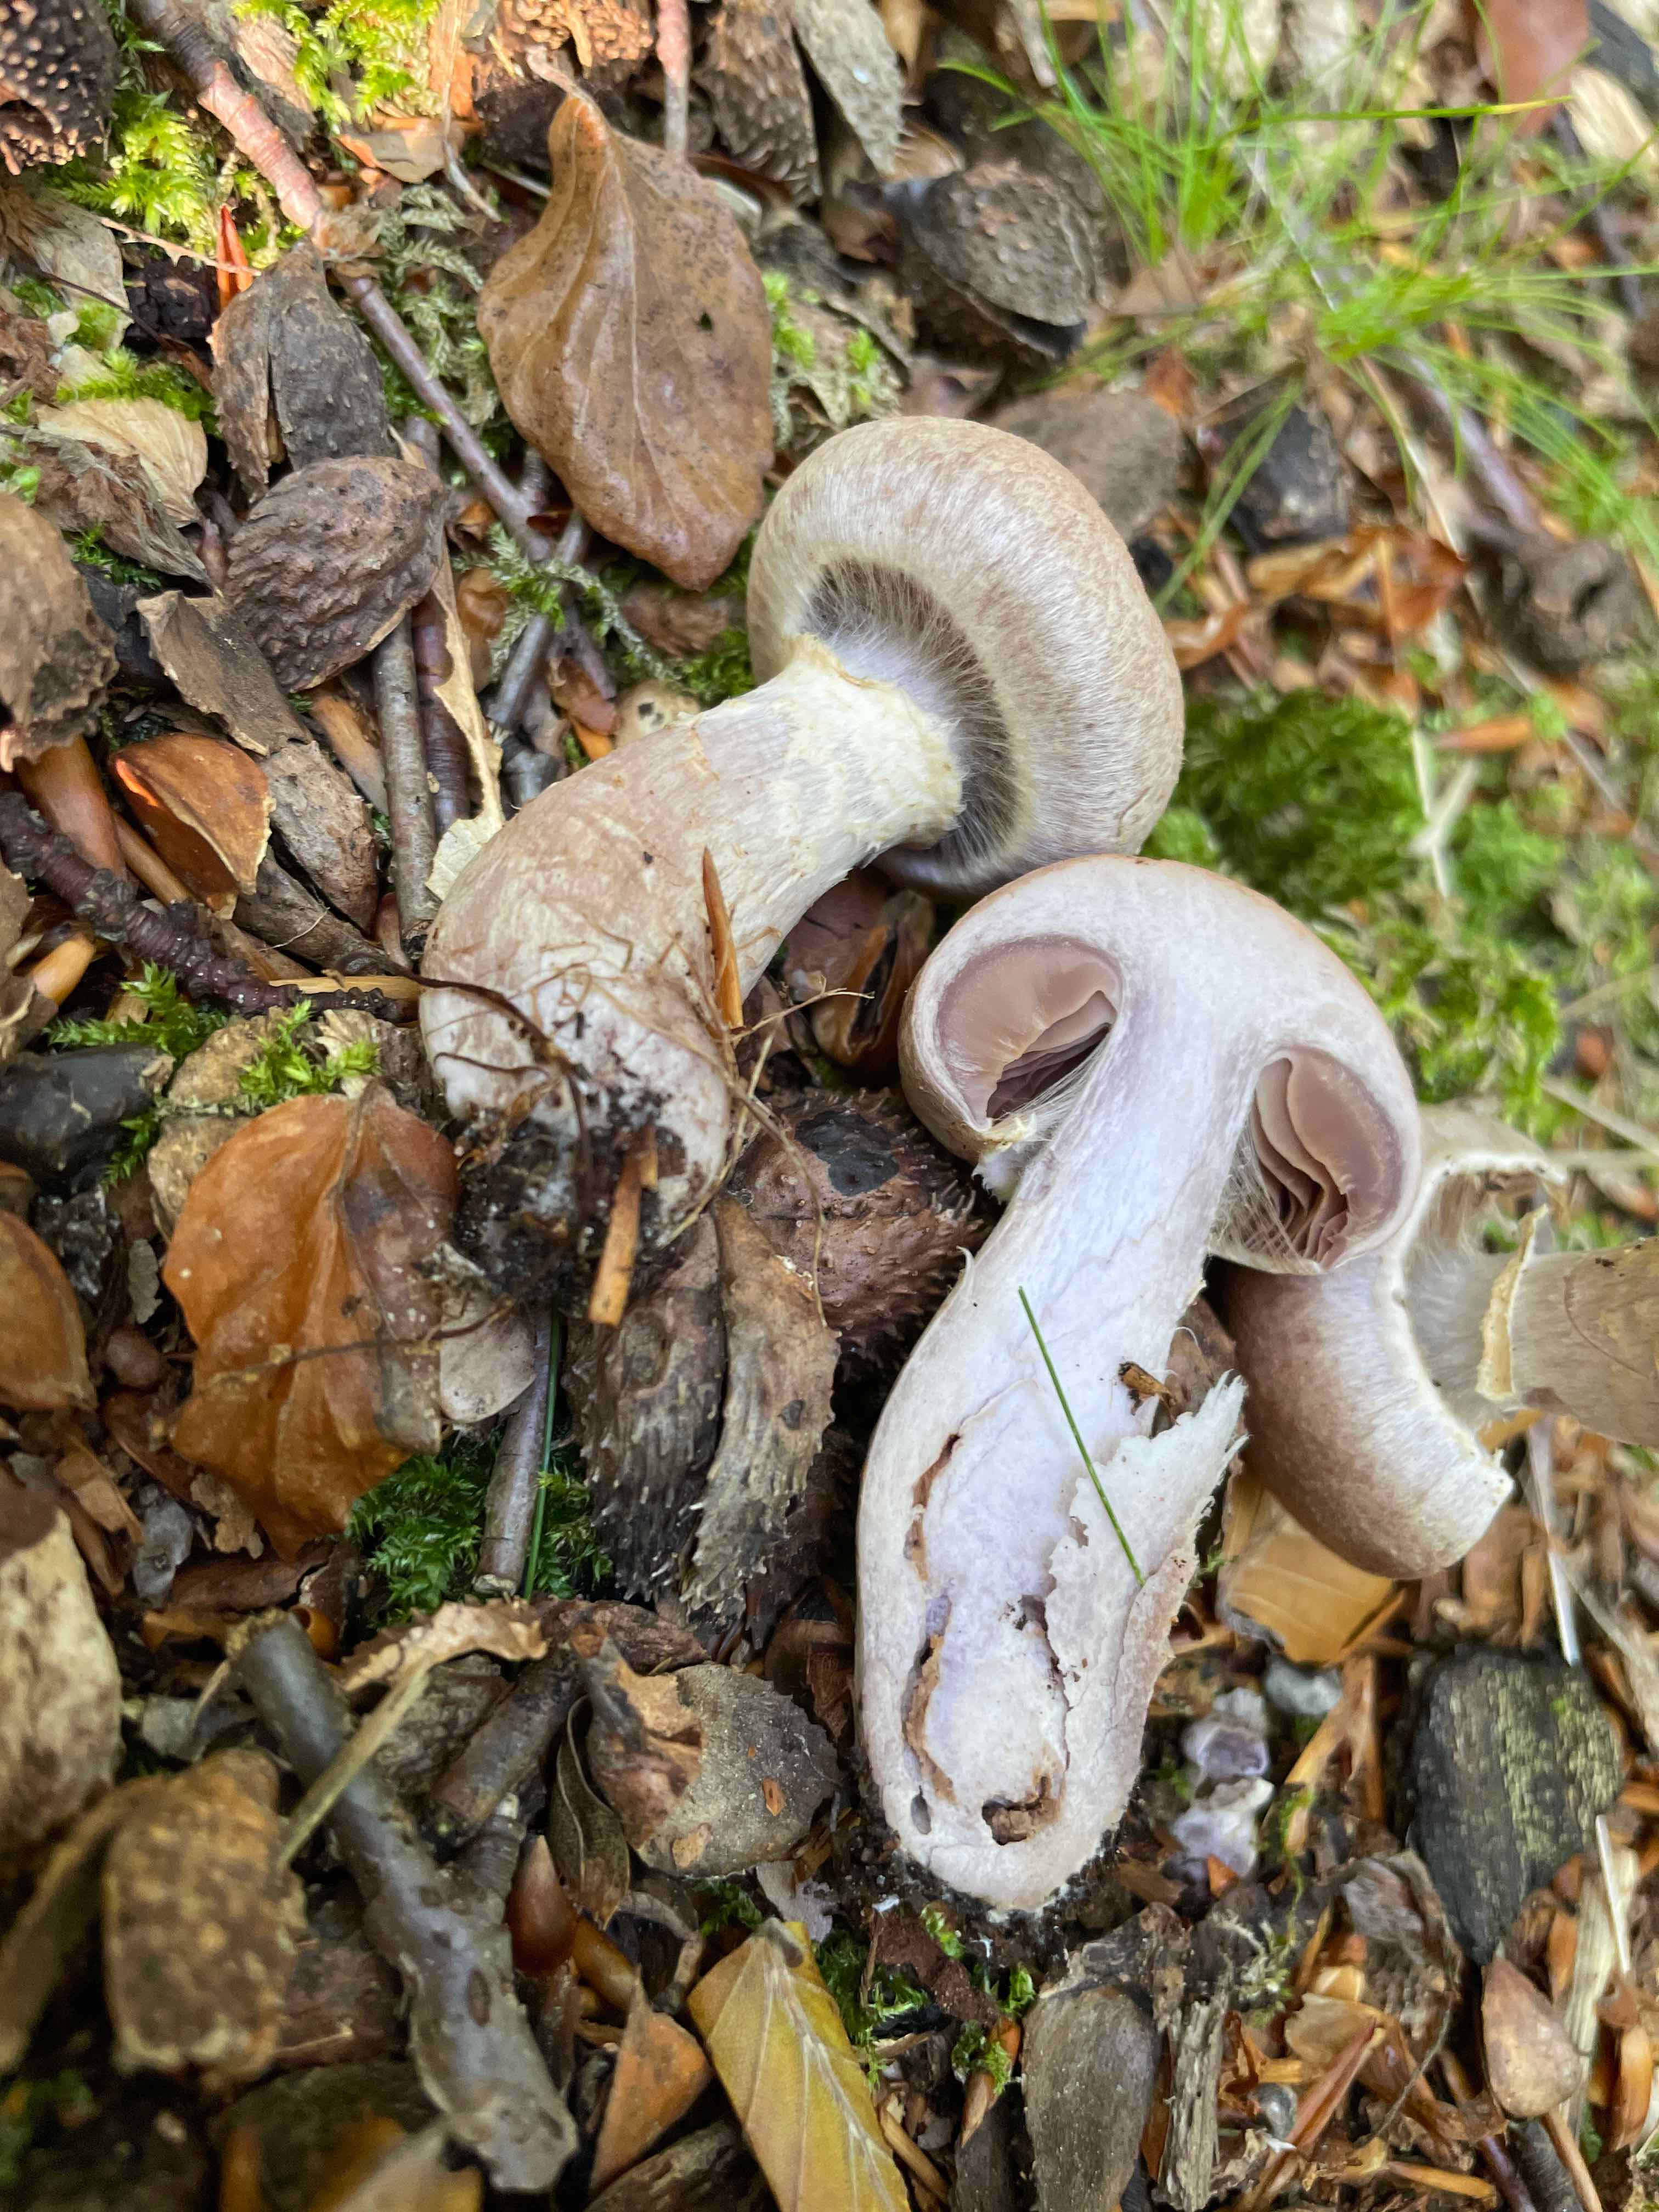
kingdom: Fungi
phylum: Basidiomycota
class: Agaricomycetes
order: Agaricales
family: Cortinariaceae
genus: Cortinarius
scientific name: Cortinarius
